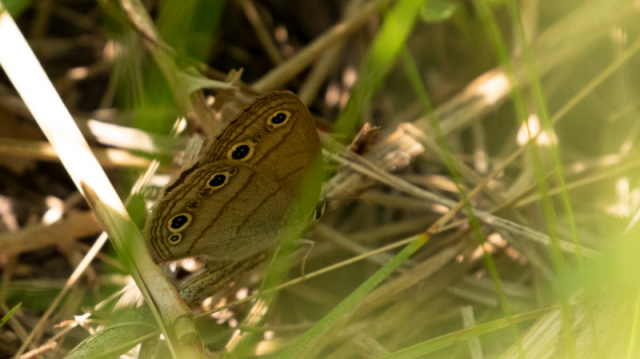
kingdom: Animalia
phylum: Arthropoda
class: Insecta
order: Lepidoptera
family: Nymphalidae
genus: Euptychia
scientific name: Euptychia cymela
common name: Little Wood Satyr
